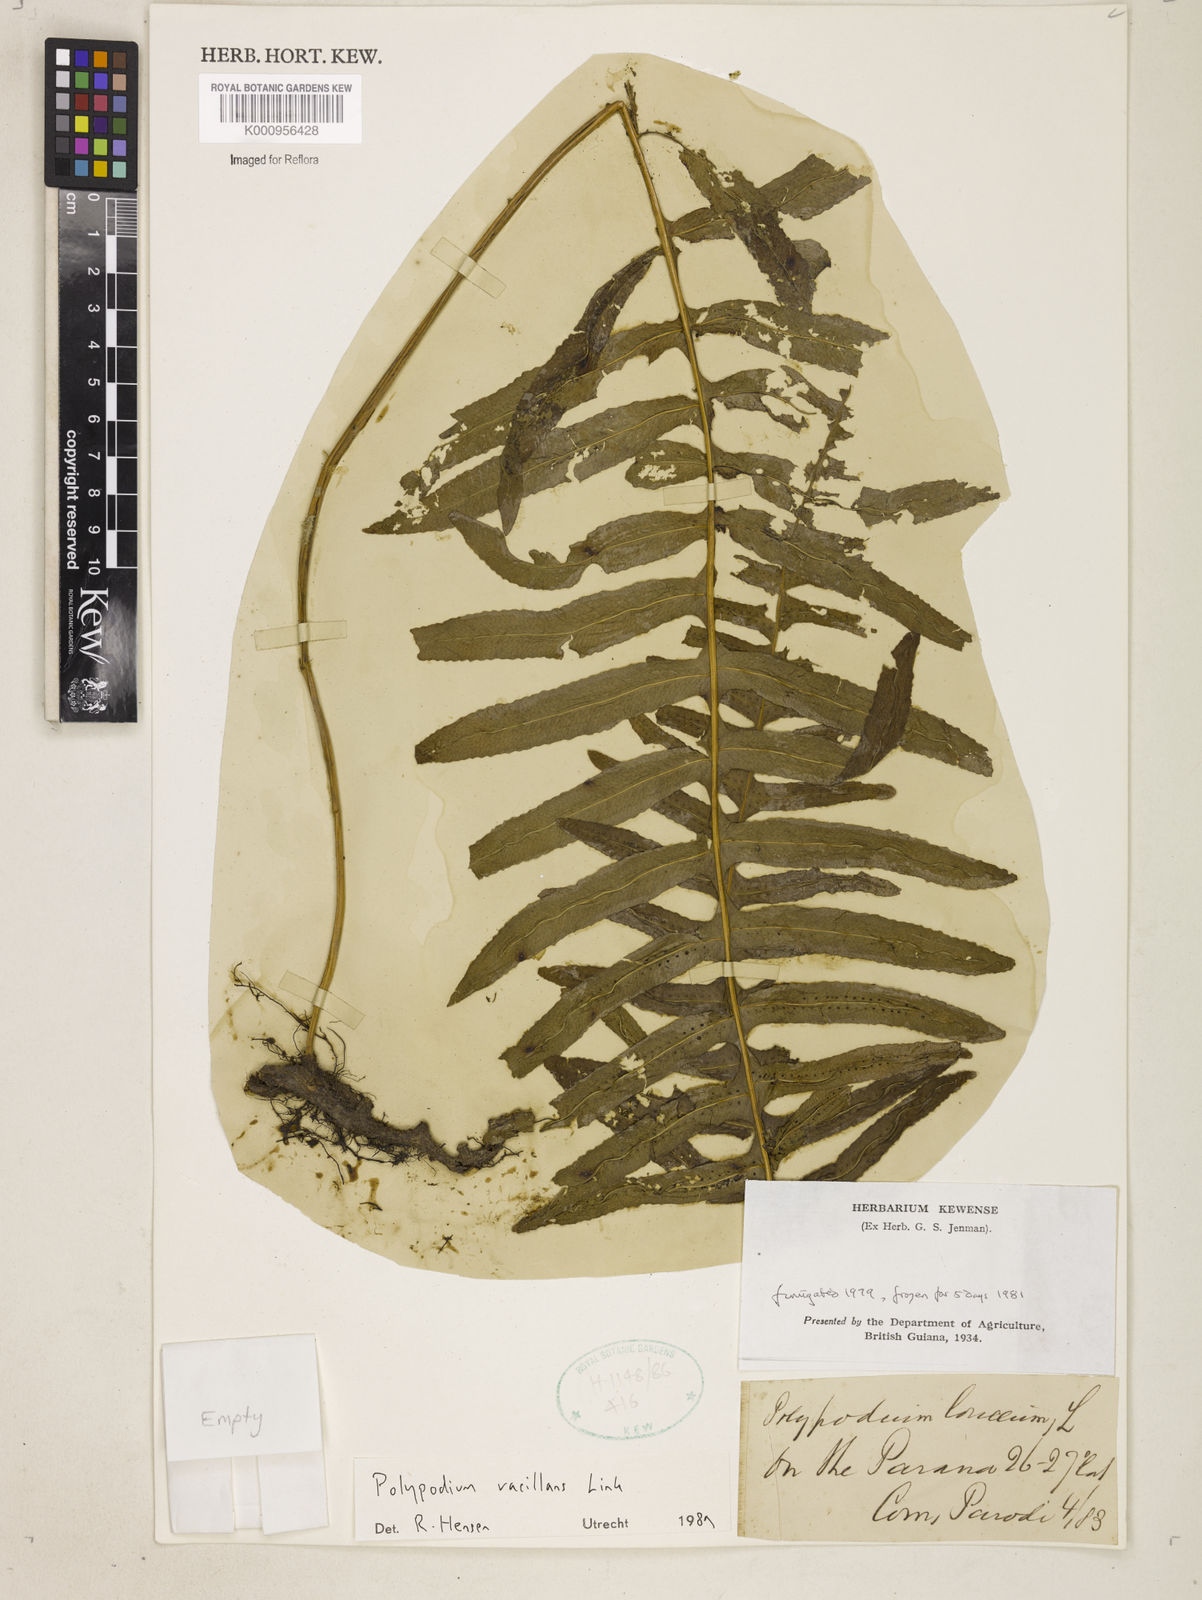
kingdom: Plantae
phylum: Tracheophyta
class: Polypodiopsida
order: Polypodiales
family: Polypodiaceae
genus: Serpocaulon
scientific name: Serpocaulon vacillans
